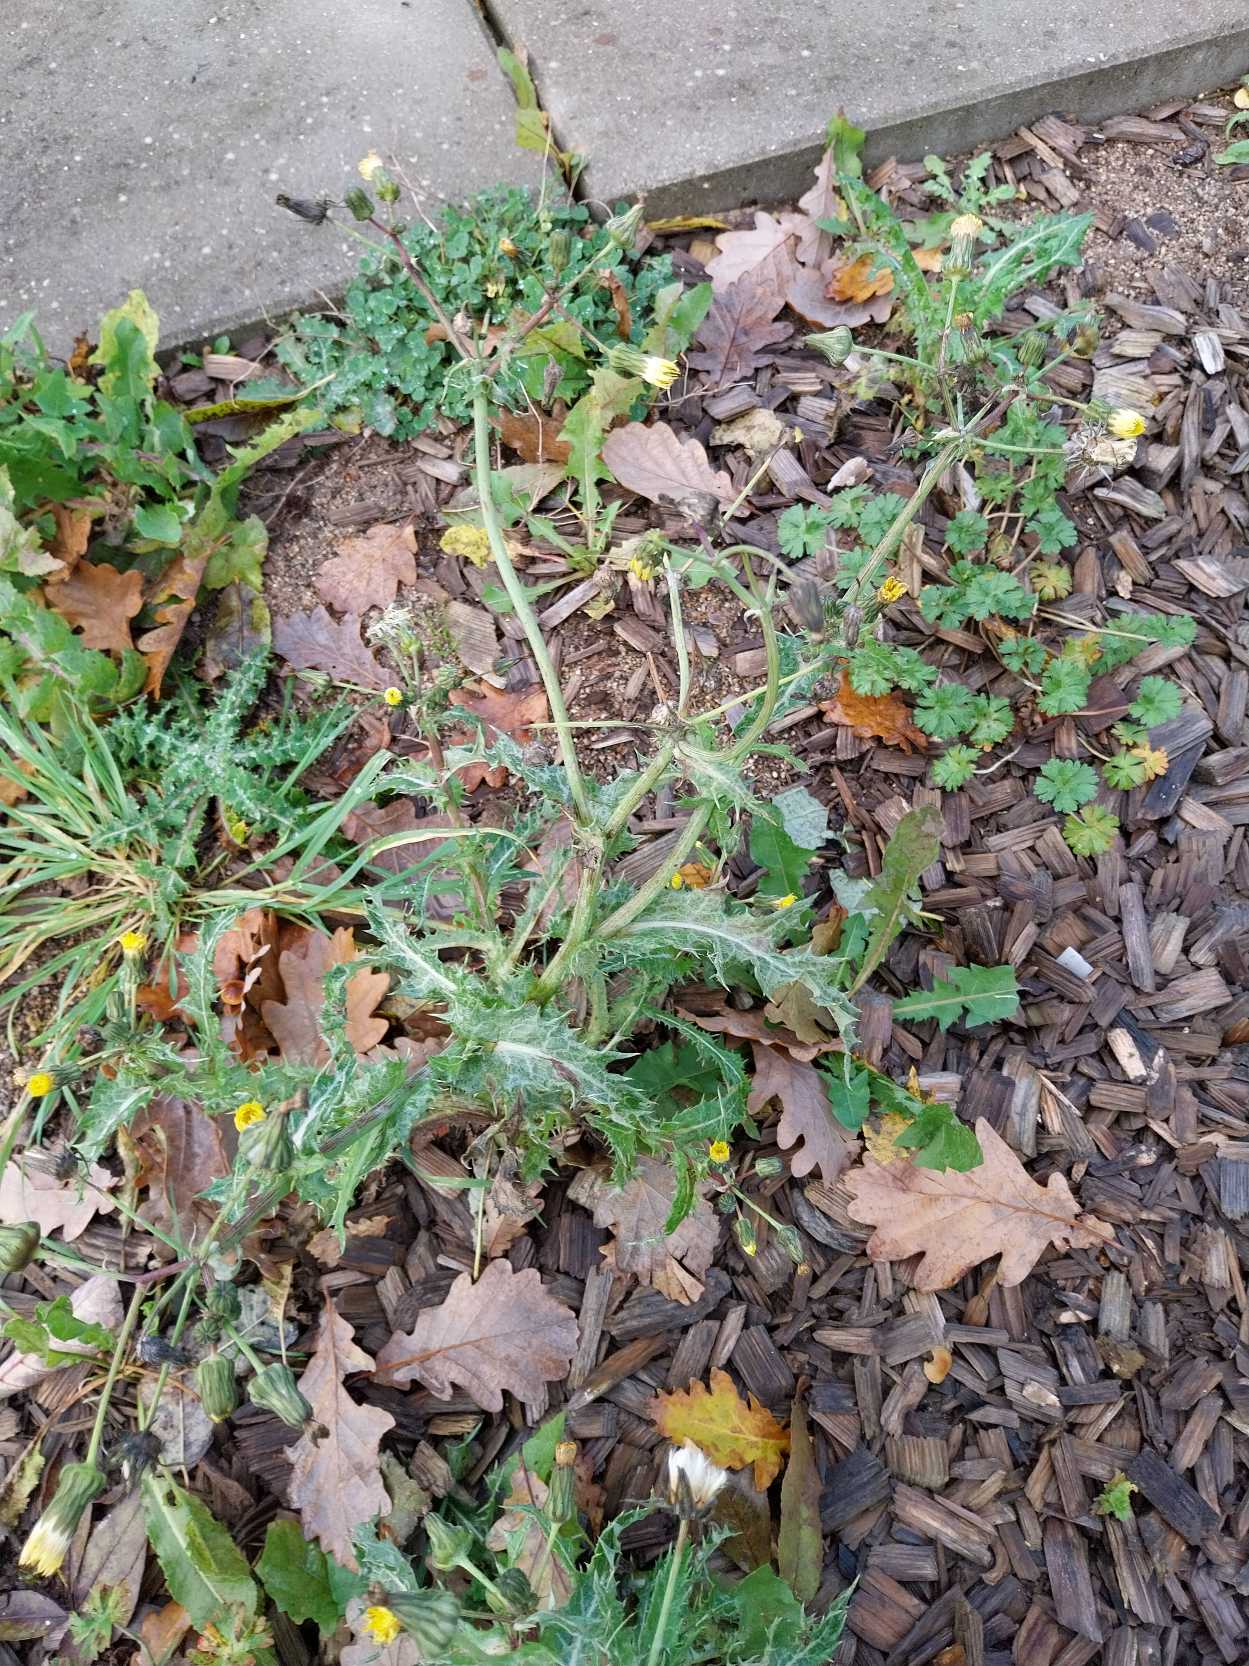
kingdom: Plantae
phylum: Tracheophyta
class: Magnoliopsida
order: Asterales
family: Asteraceae
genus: Sonchus
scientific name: Sonchus asper
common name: Ru svinemælk
